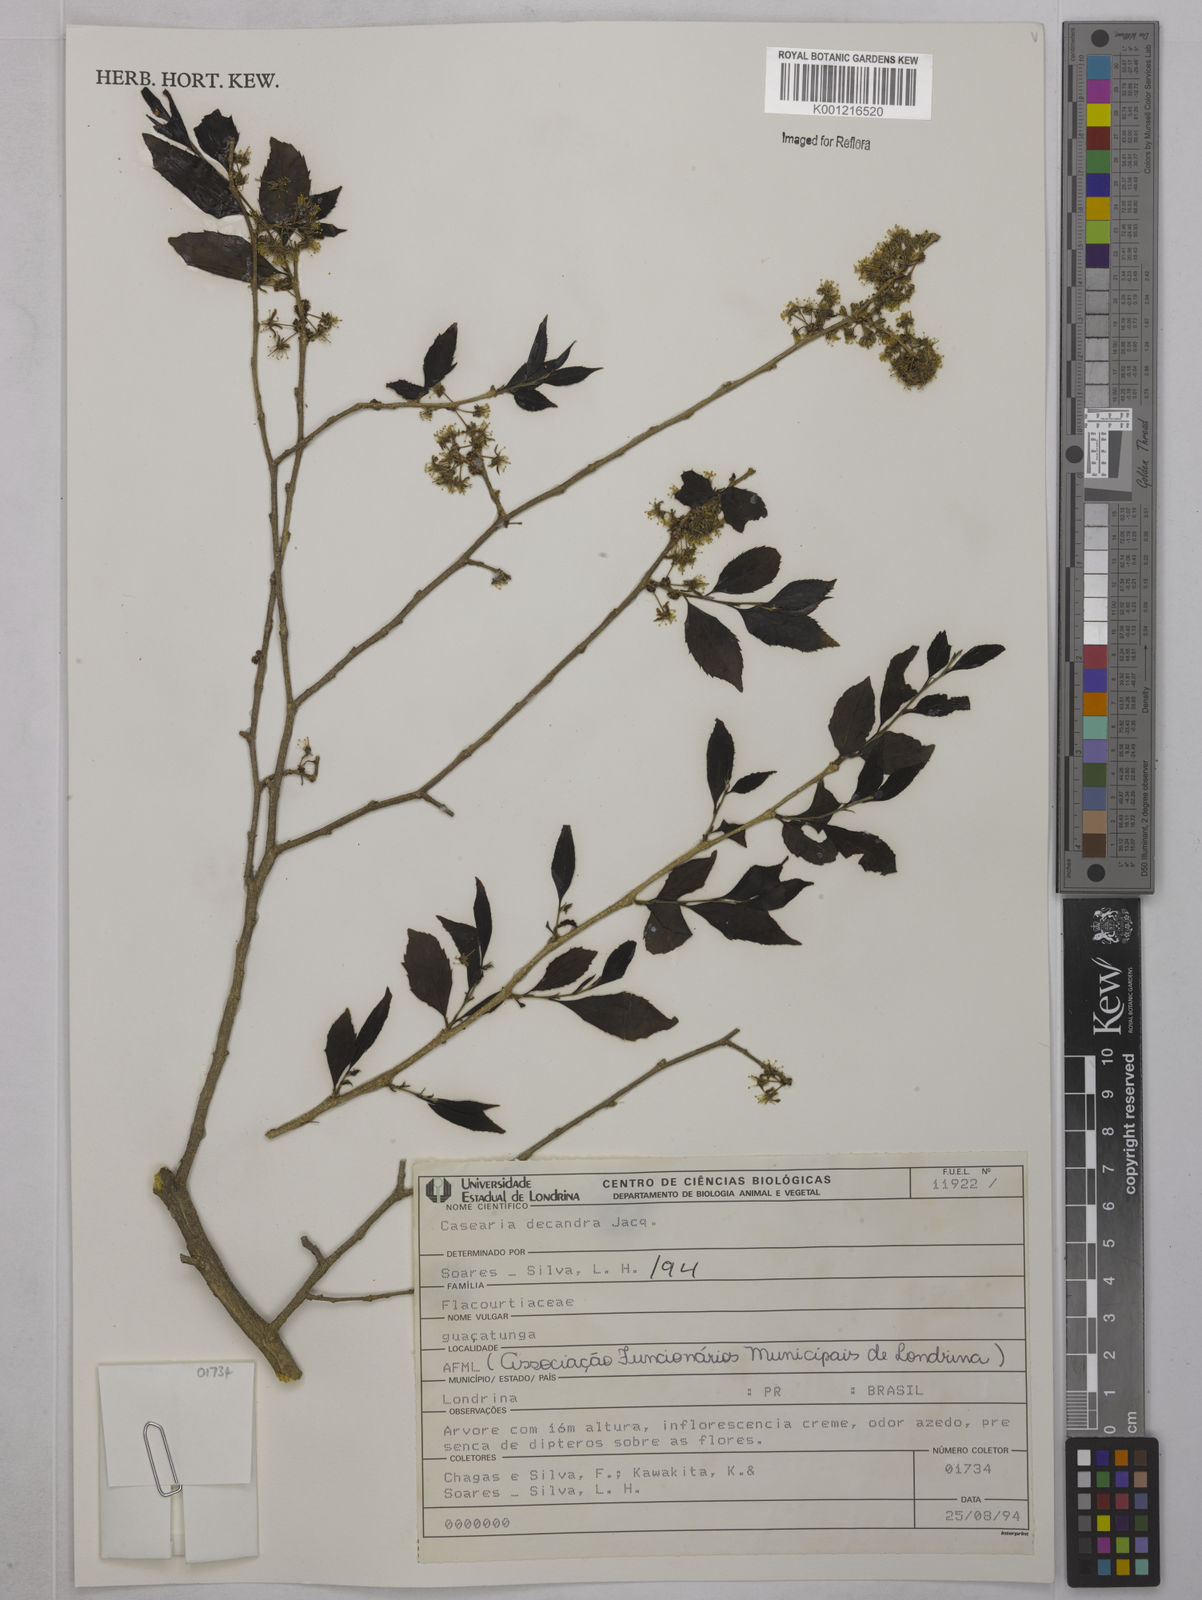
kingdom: Plantae
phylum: Tracheophyta
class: Magnoliopsida
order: Malpighiales
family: Salicaceae
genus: Casearia
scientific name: Casearia decandra
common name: Crack open
